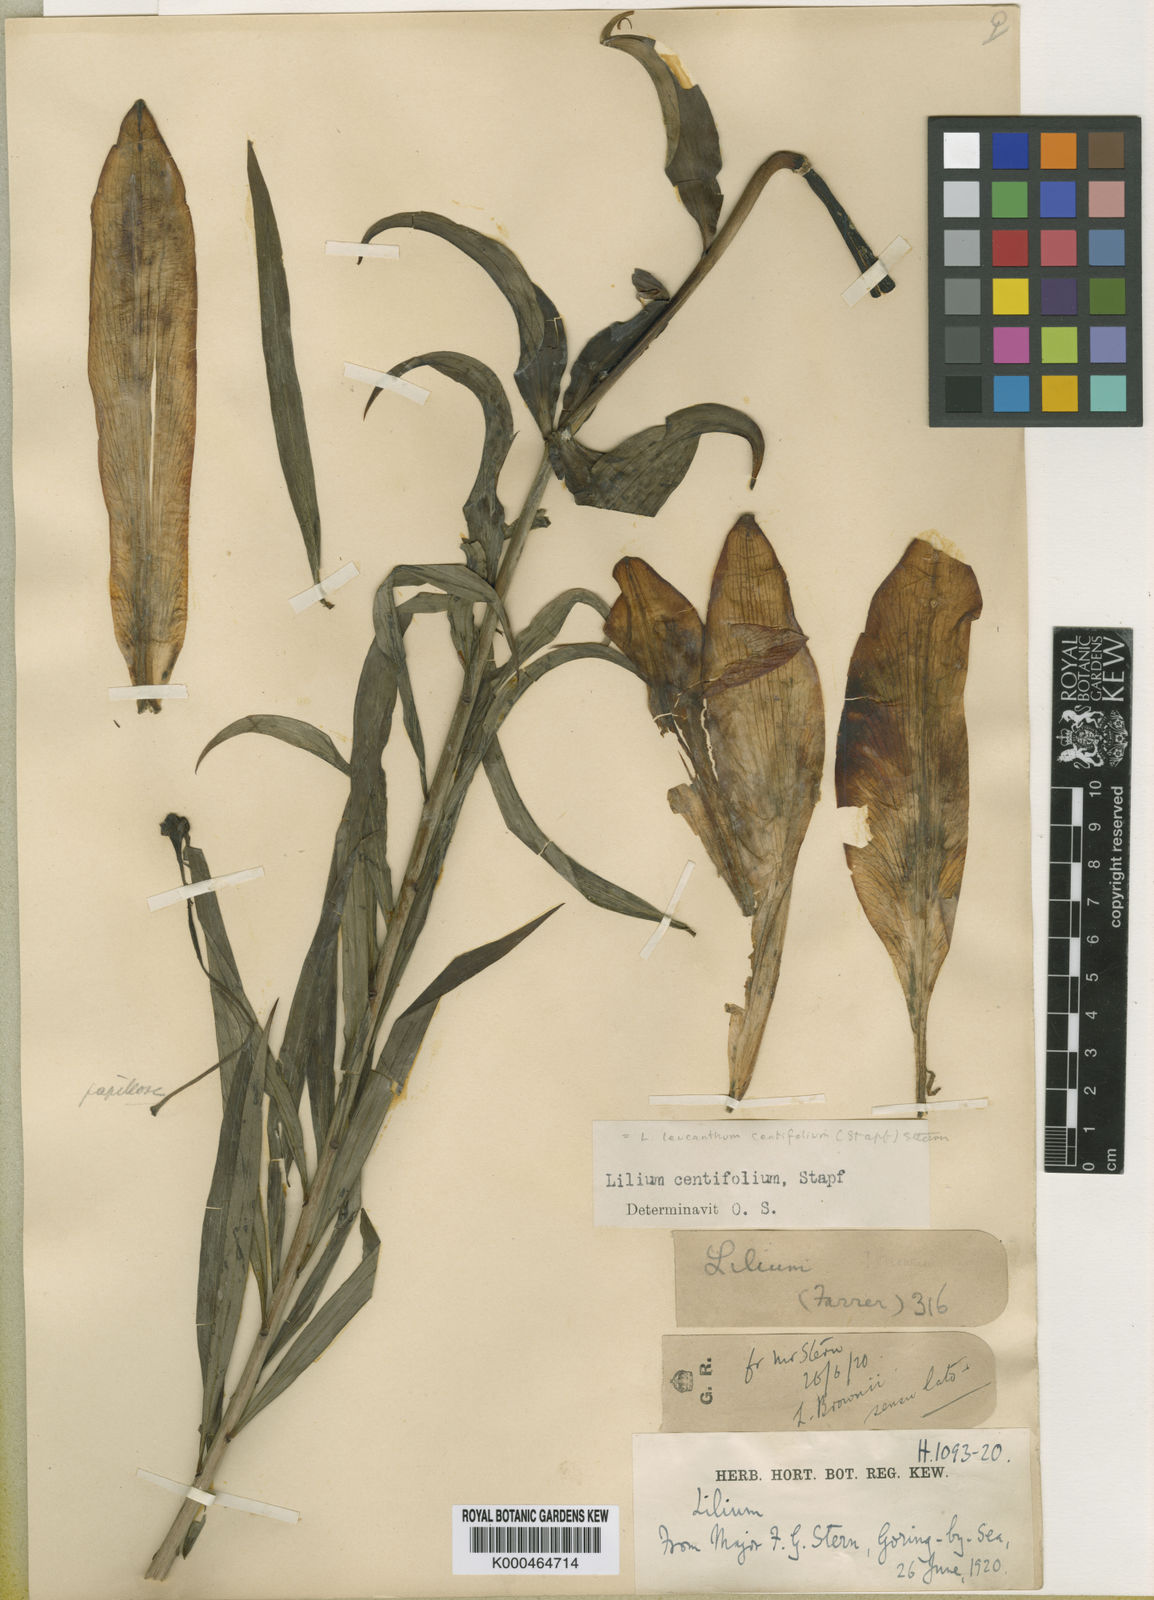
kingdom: Plantae
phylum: Tracheophyta
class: Liliopsida
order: Liliales
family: Liliaceae
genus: Lilium
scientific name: Lilium
